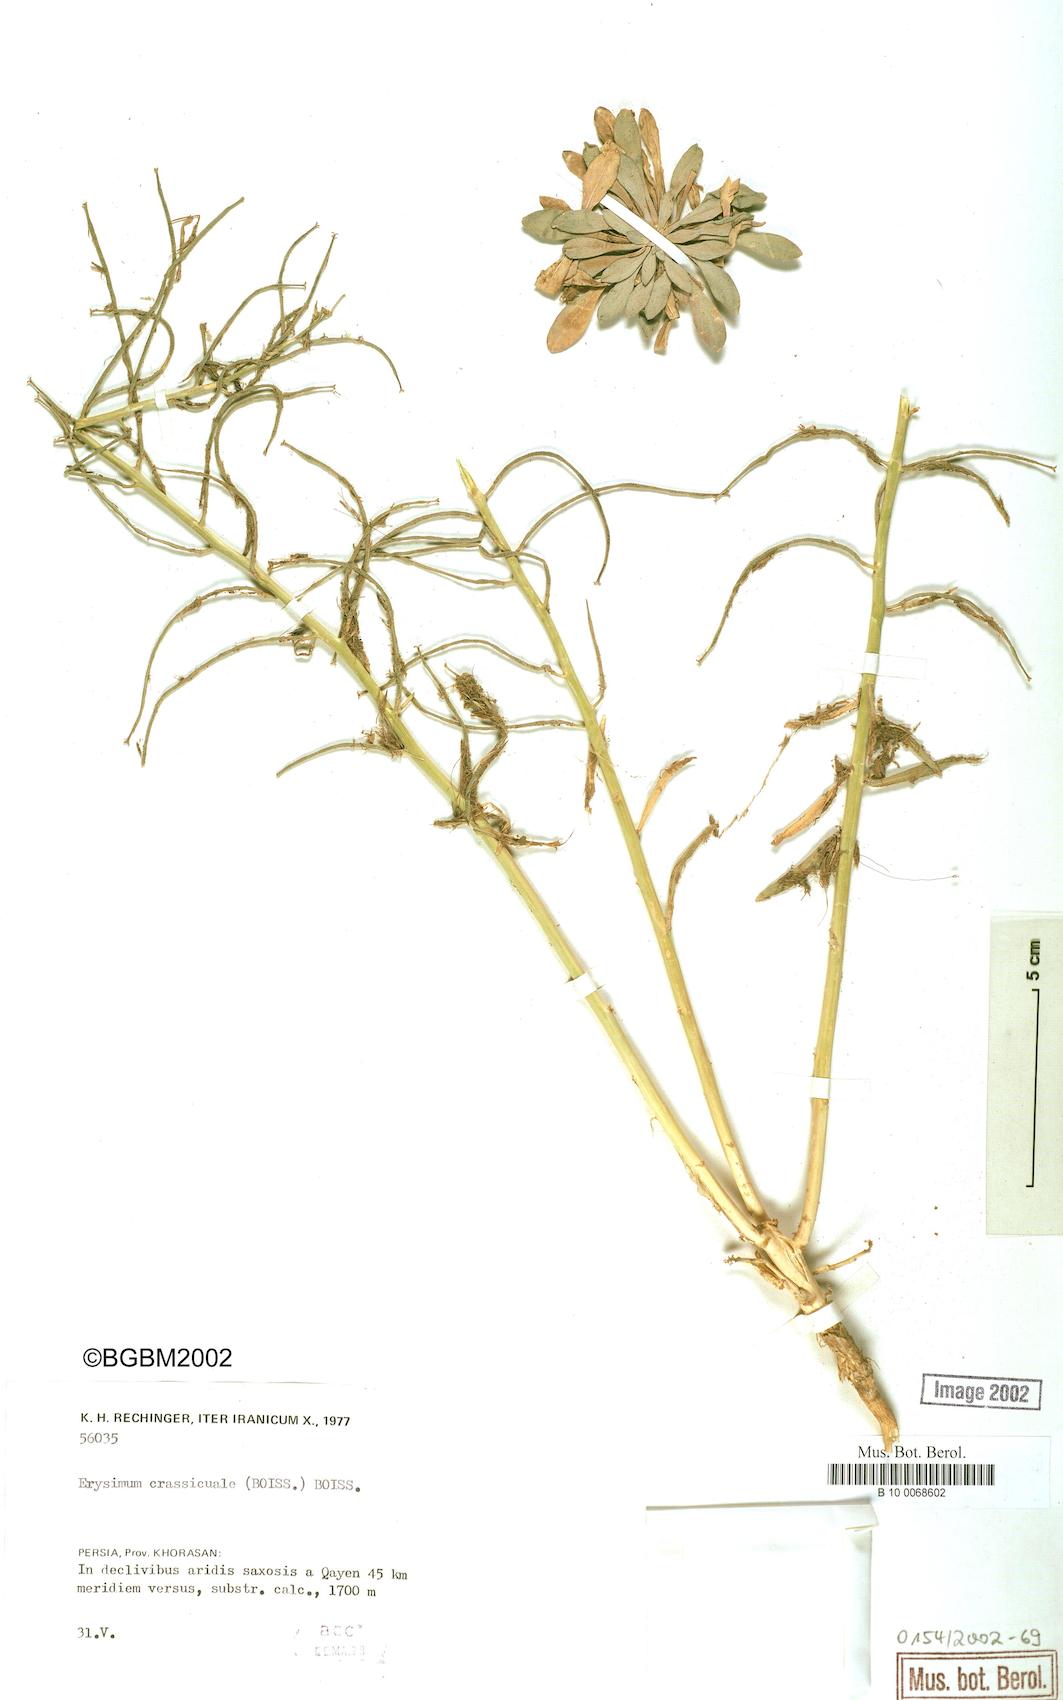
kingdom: Plantae
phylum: Tracheophyta
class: Magnoliopsida
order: Brassicales
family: Brassicaceae
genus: Erysimum
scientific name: Erysimum crassicaule
